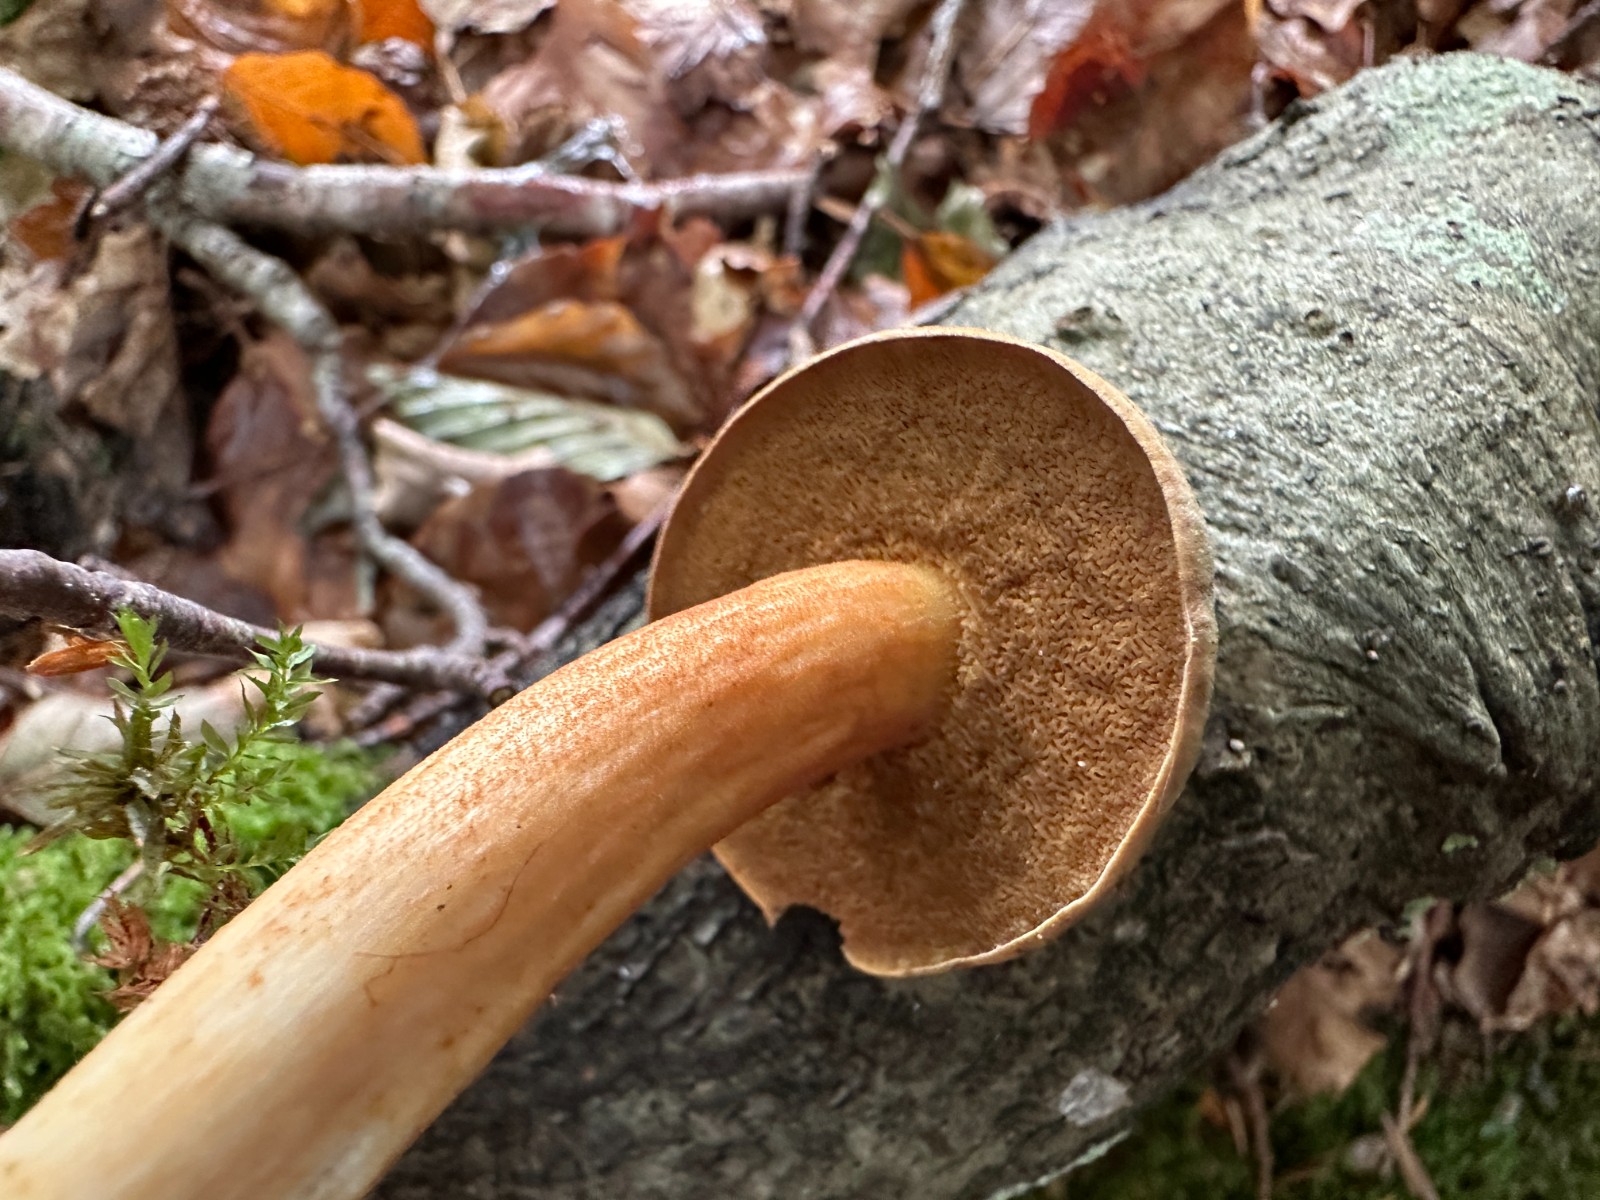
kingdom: Fungi
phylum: Basidiomycota
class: Agaricomycetes
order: Boletales
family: Boletaceae
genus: Chalciporus
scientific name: Chalciporus piperatus
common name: peberrørhat
